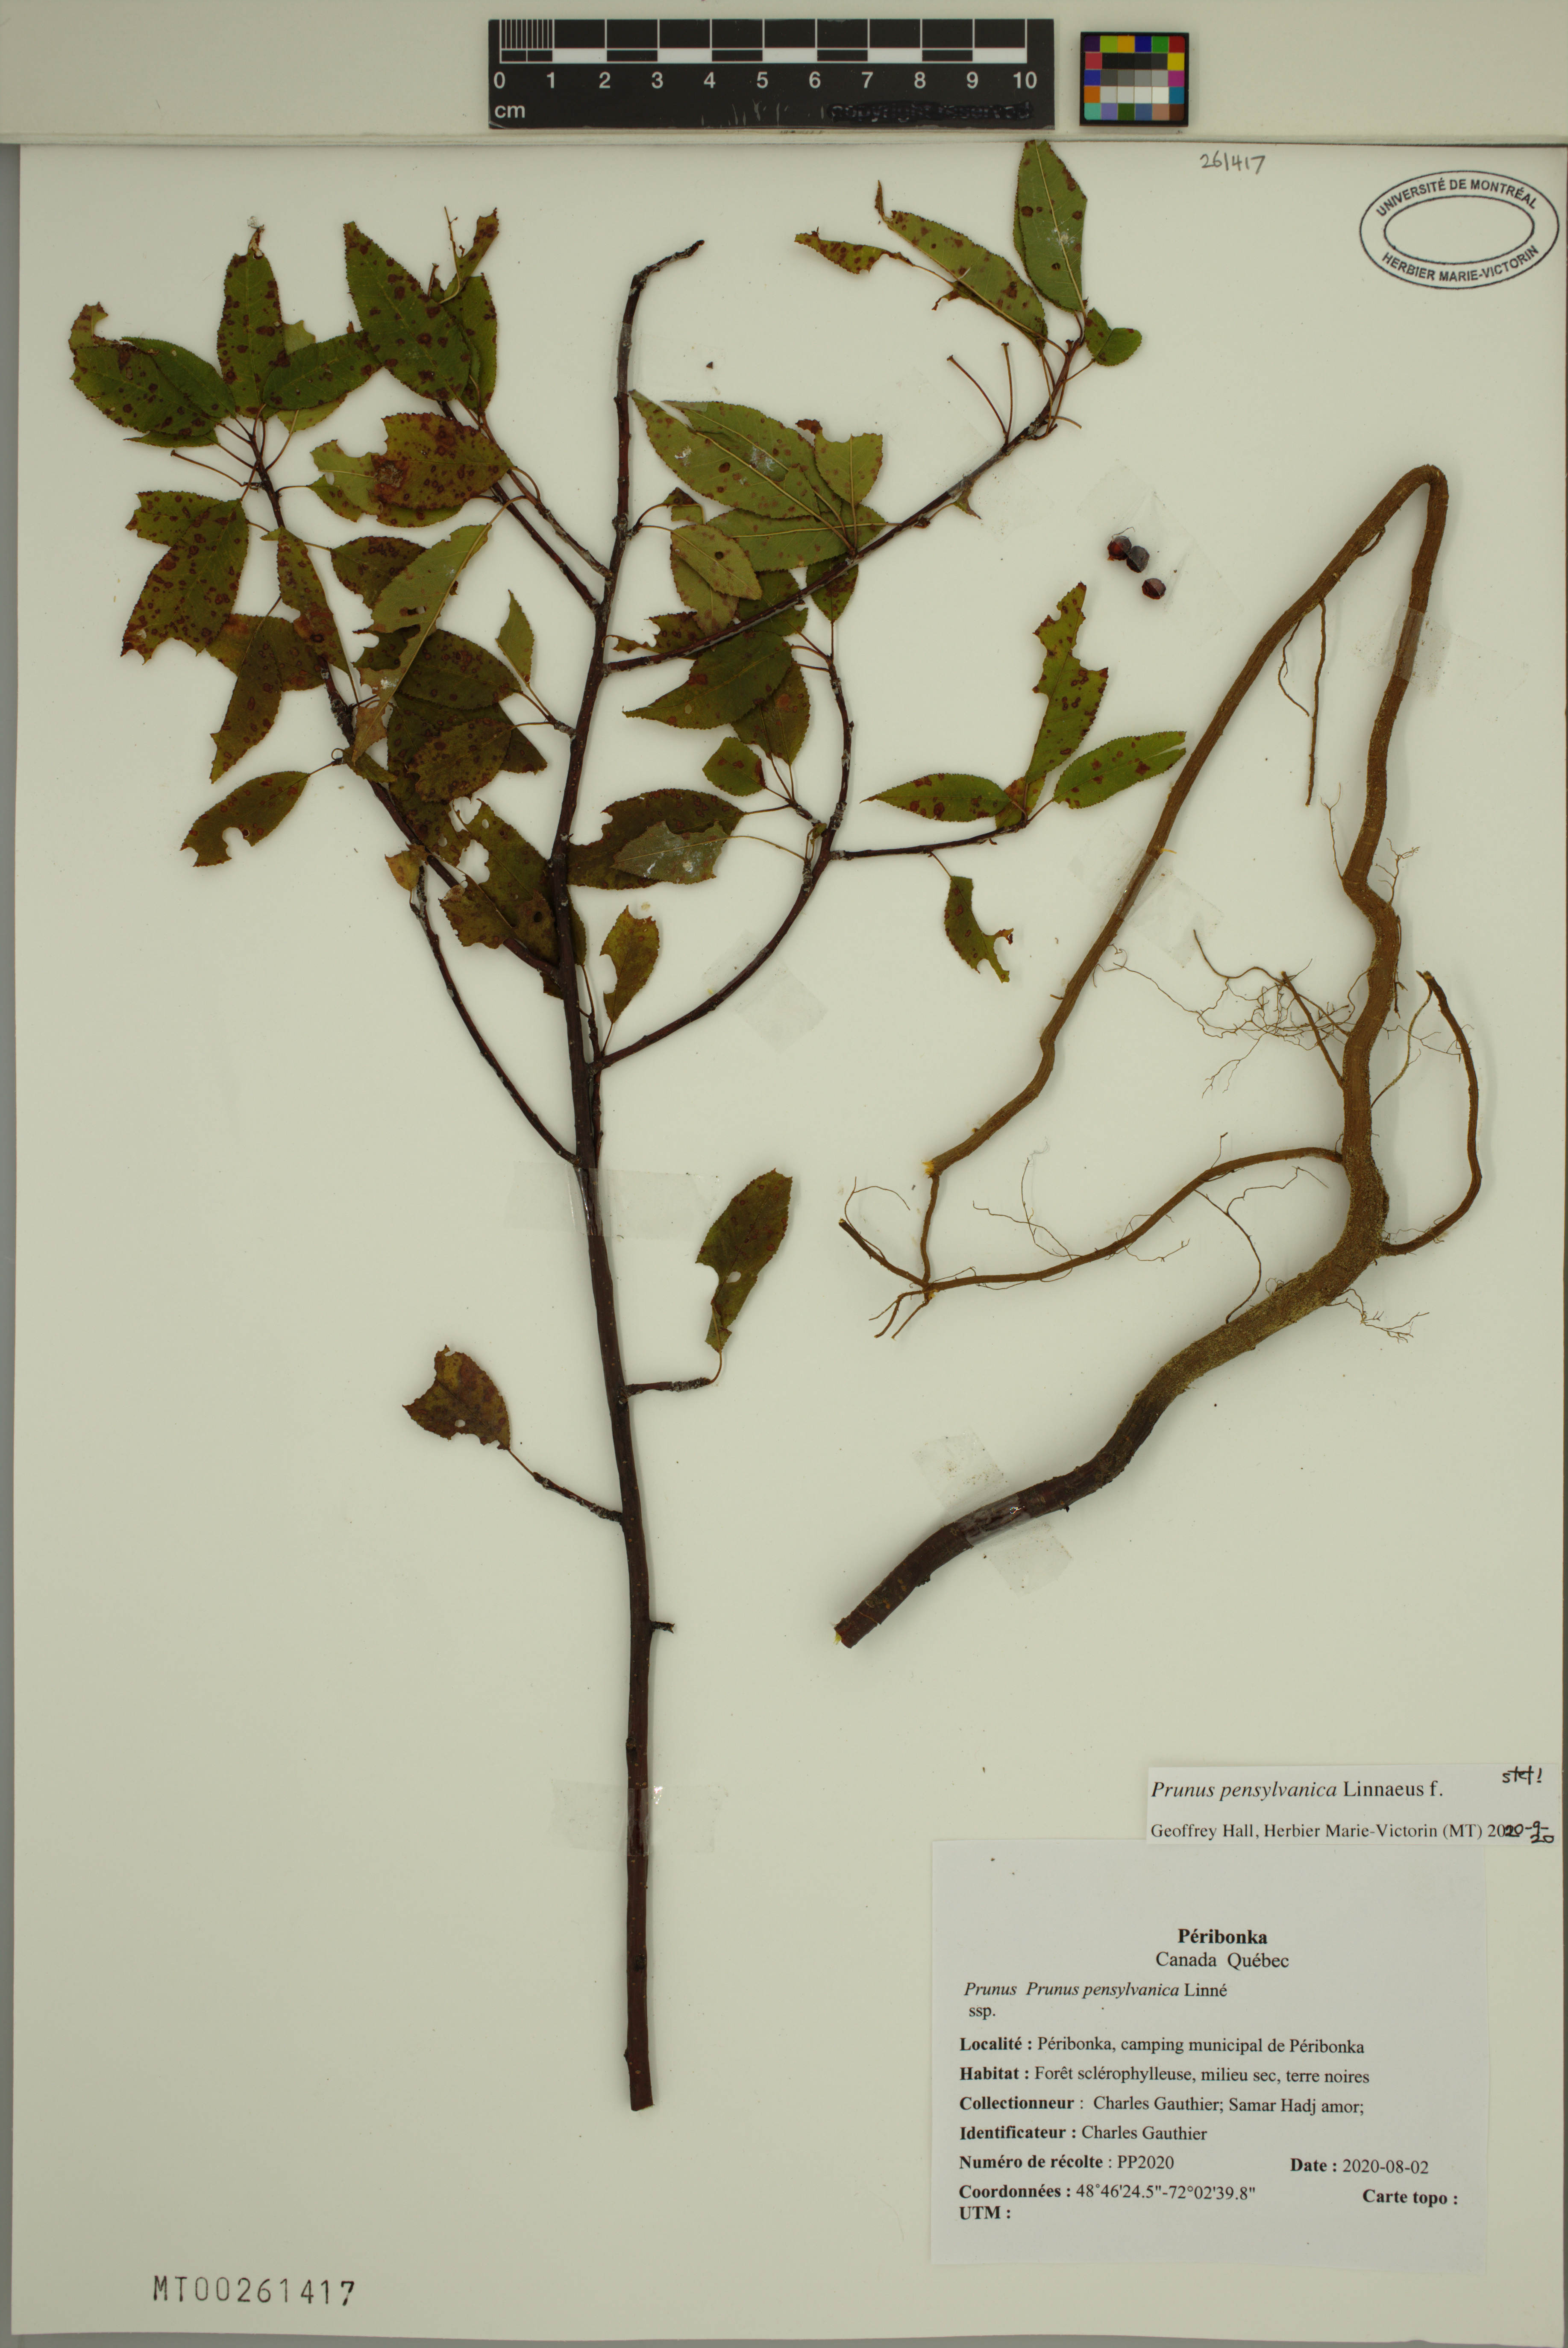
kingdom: Plantae
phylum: Tracheophyta
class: Magnoliopsida
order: Rosales
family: Rosaceae
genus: Prunus
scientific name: Prunus pensylvanica
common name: Pin cherry
